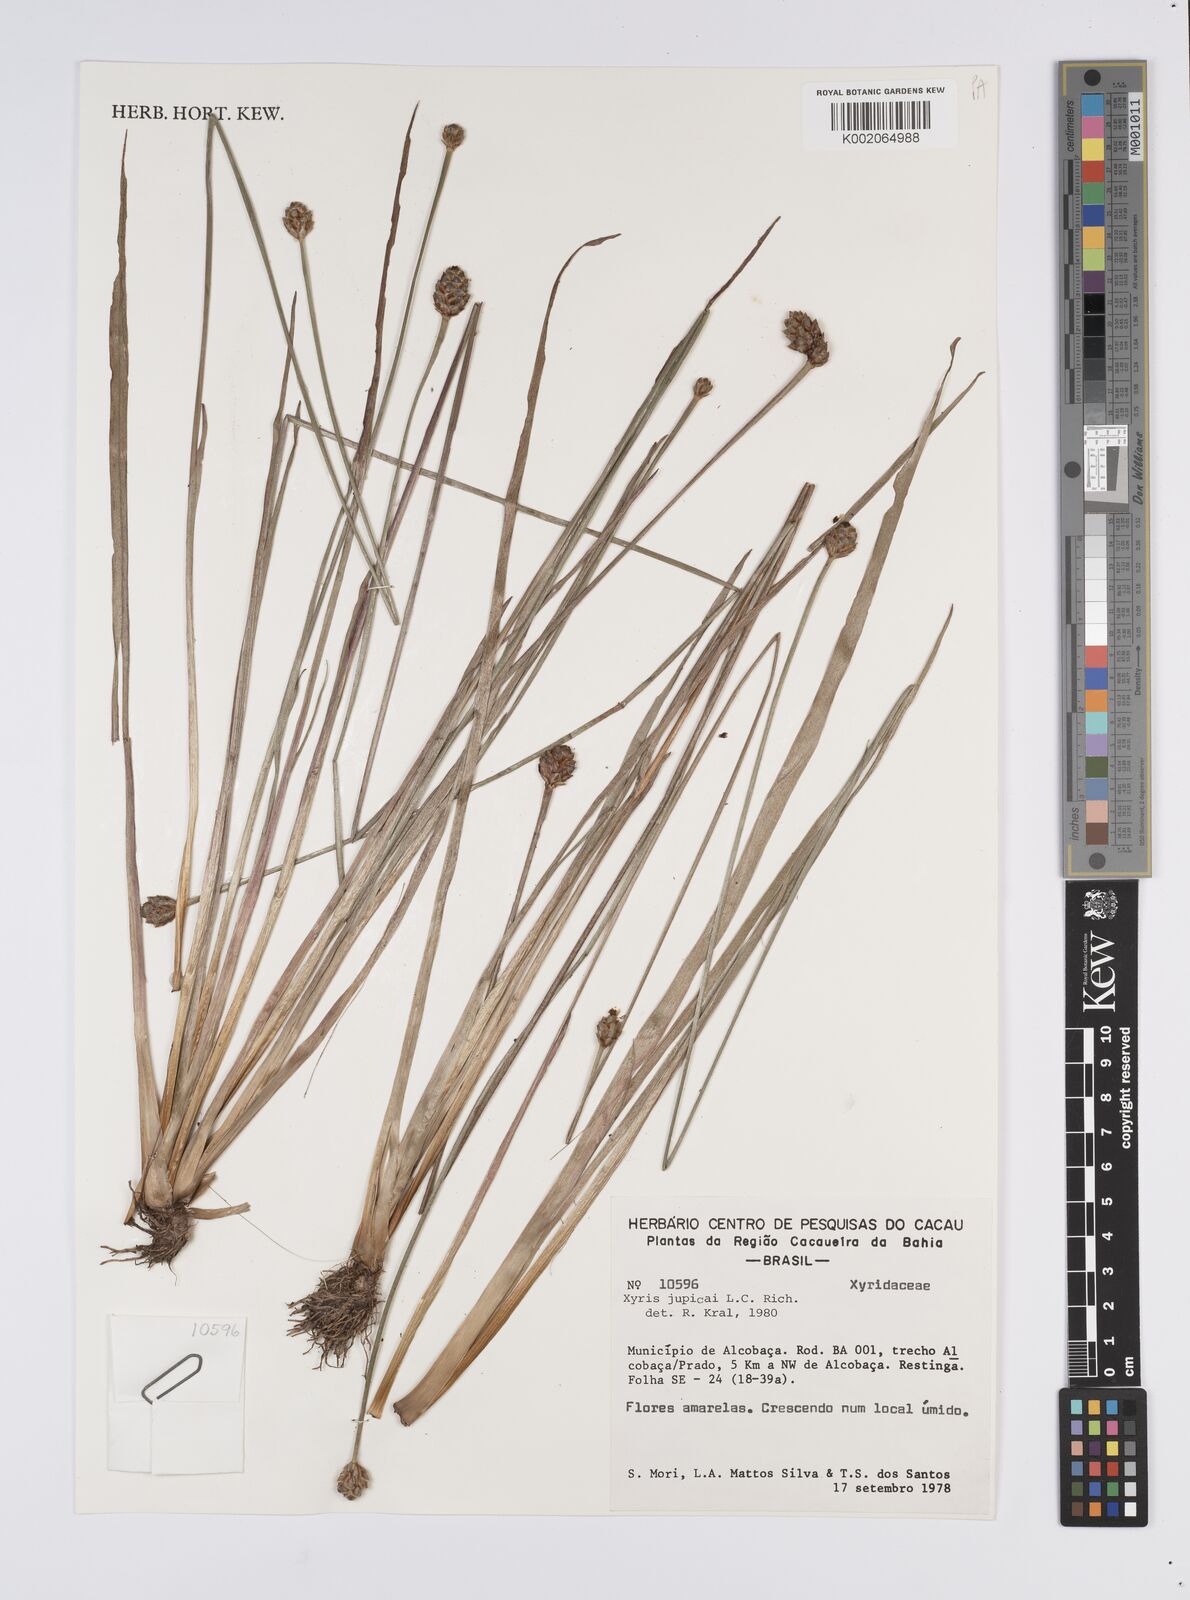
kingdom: Plantae
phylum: Tracheophyta
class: Liliopsida
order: Poales
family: Xyridaceae
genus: Xyris
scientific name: Xyris jupicai
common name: Richard's yelloweyed grass
